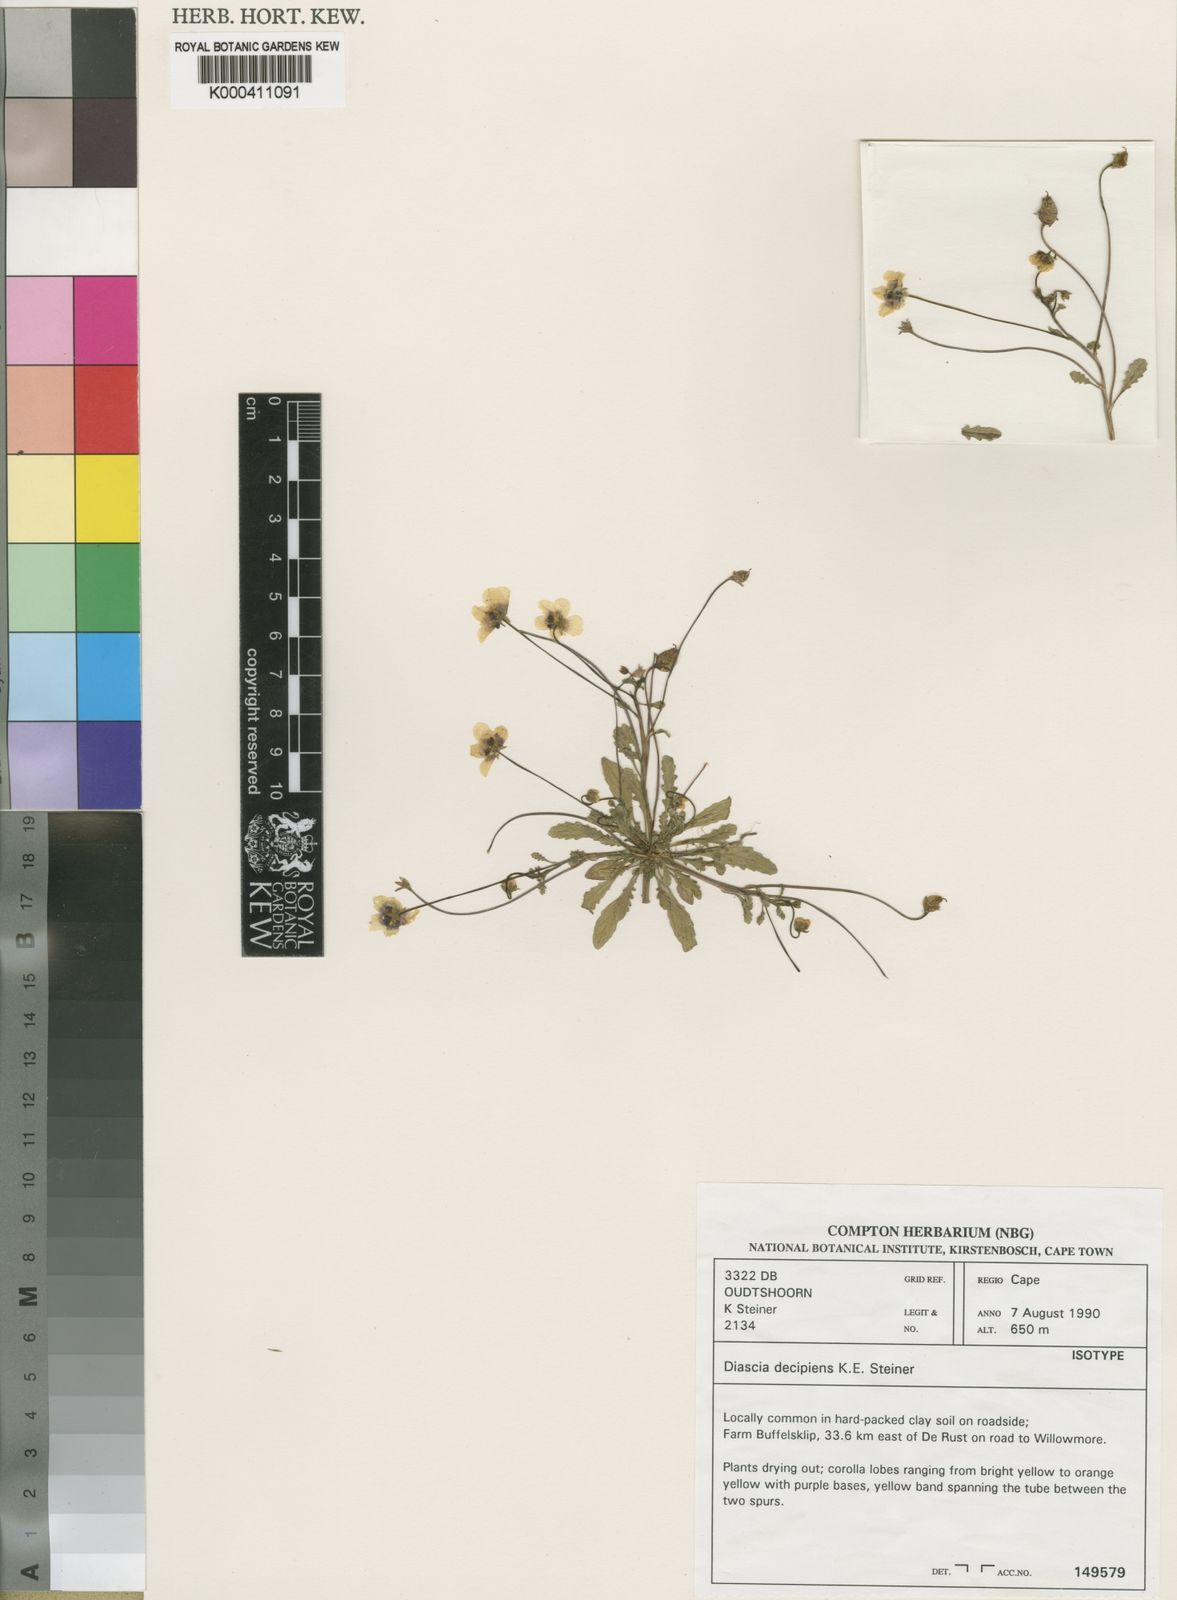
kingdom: Plantae
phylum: Tracheophyta
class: Magnoliopsida
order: Lamiales
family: Scrophulariaceae
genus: Diascia
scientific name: Diascia decipiens
